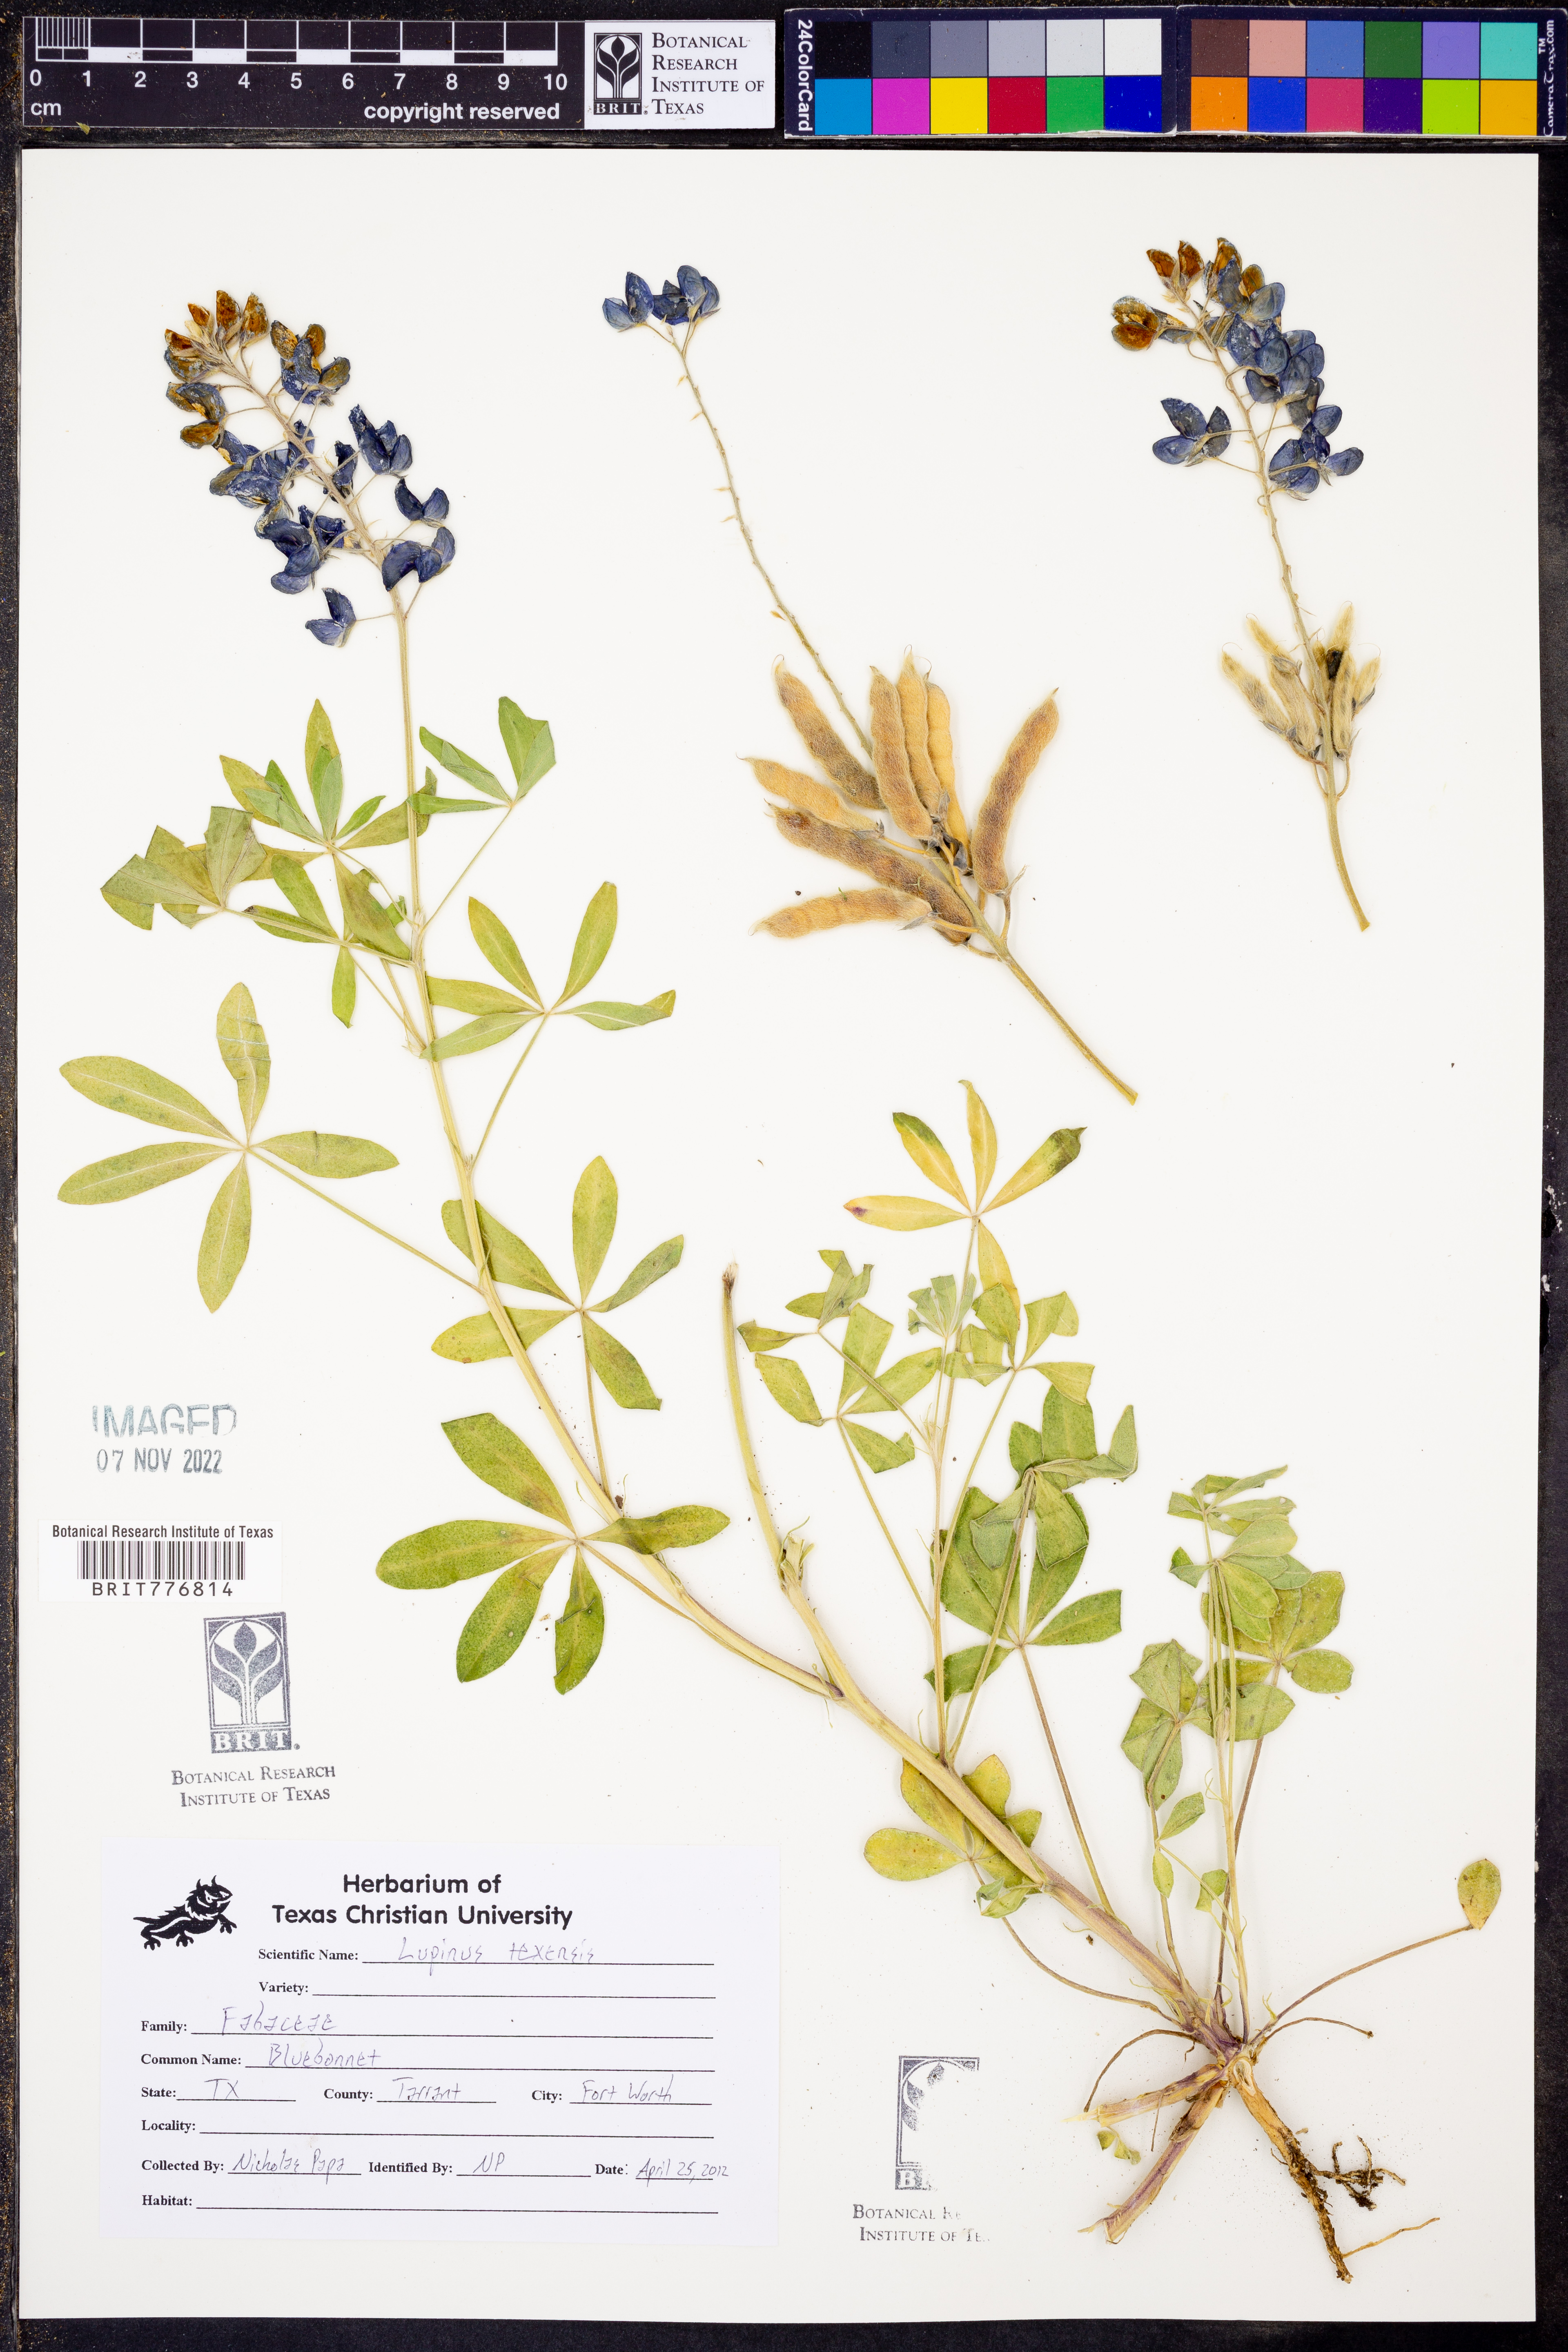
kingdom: Plantae
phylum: Tracheophyta
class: Magnoliopsida
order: Fabales
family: Fabaceae
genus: Lupinus
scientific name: Lupinus texensis
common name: Texas bluebonnet
